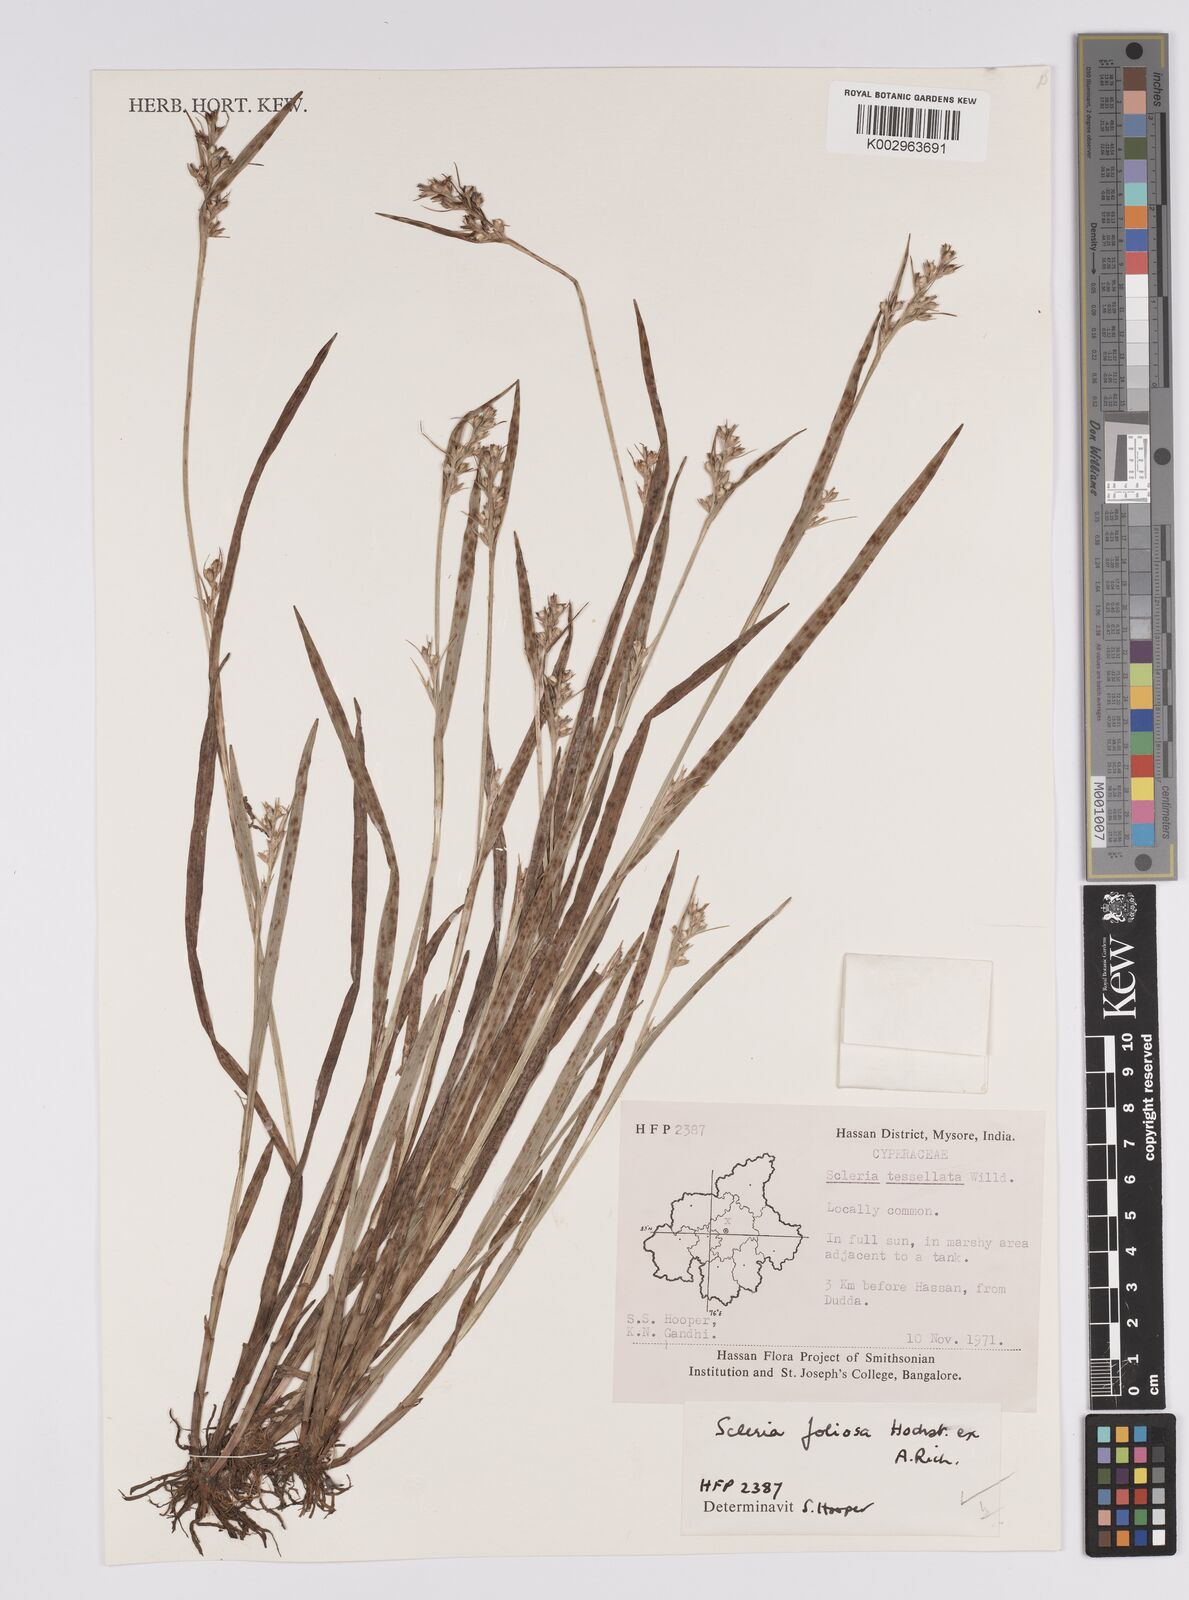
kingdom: Plantae
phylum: Tracheophyta
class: Liliopsida
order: Poales
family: Cyperaceae
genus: Scleria
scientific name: Scleria foliosa
